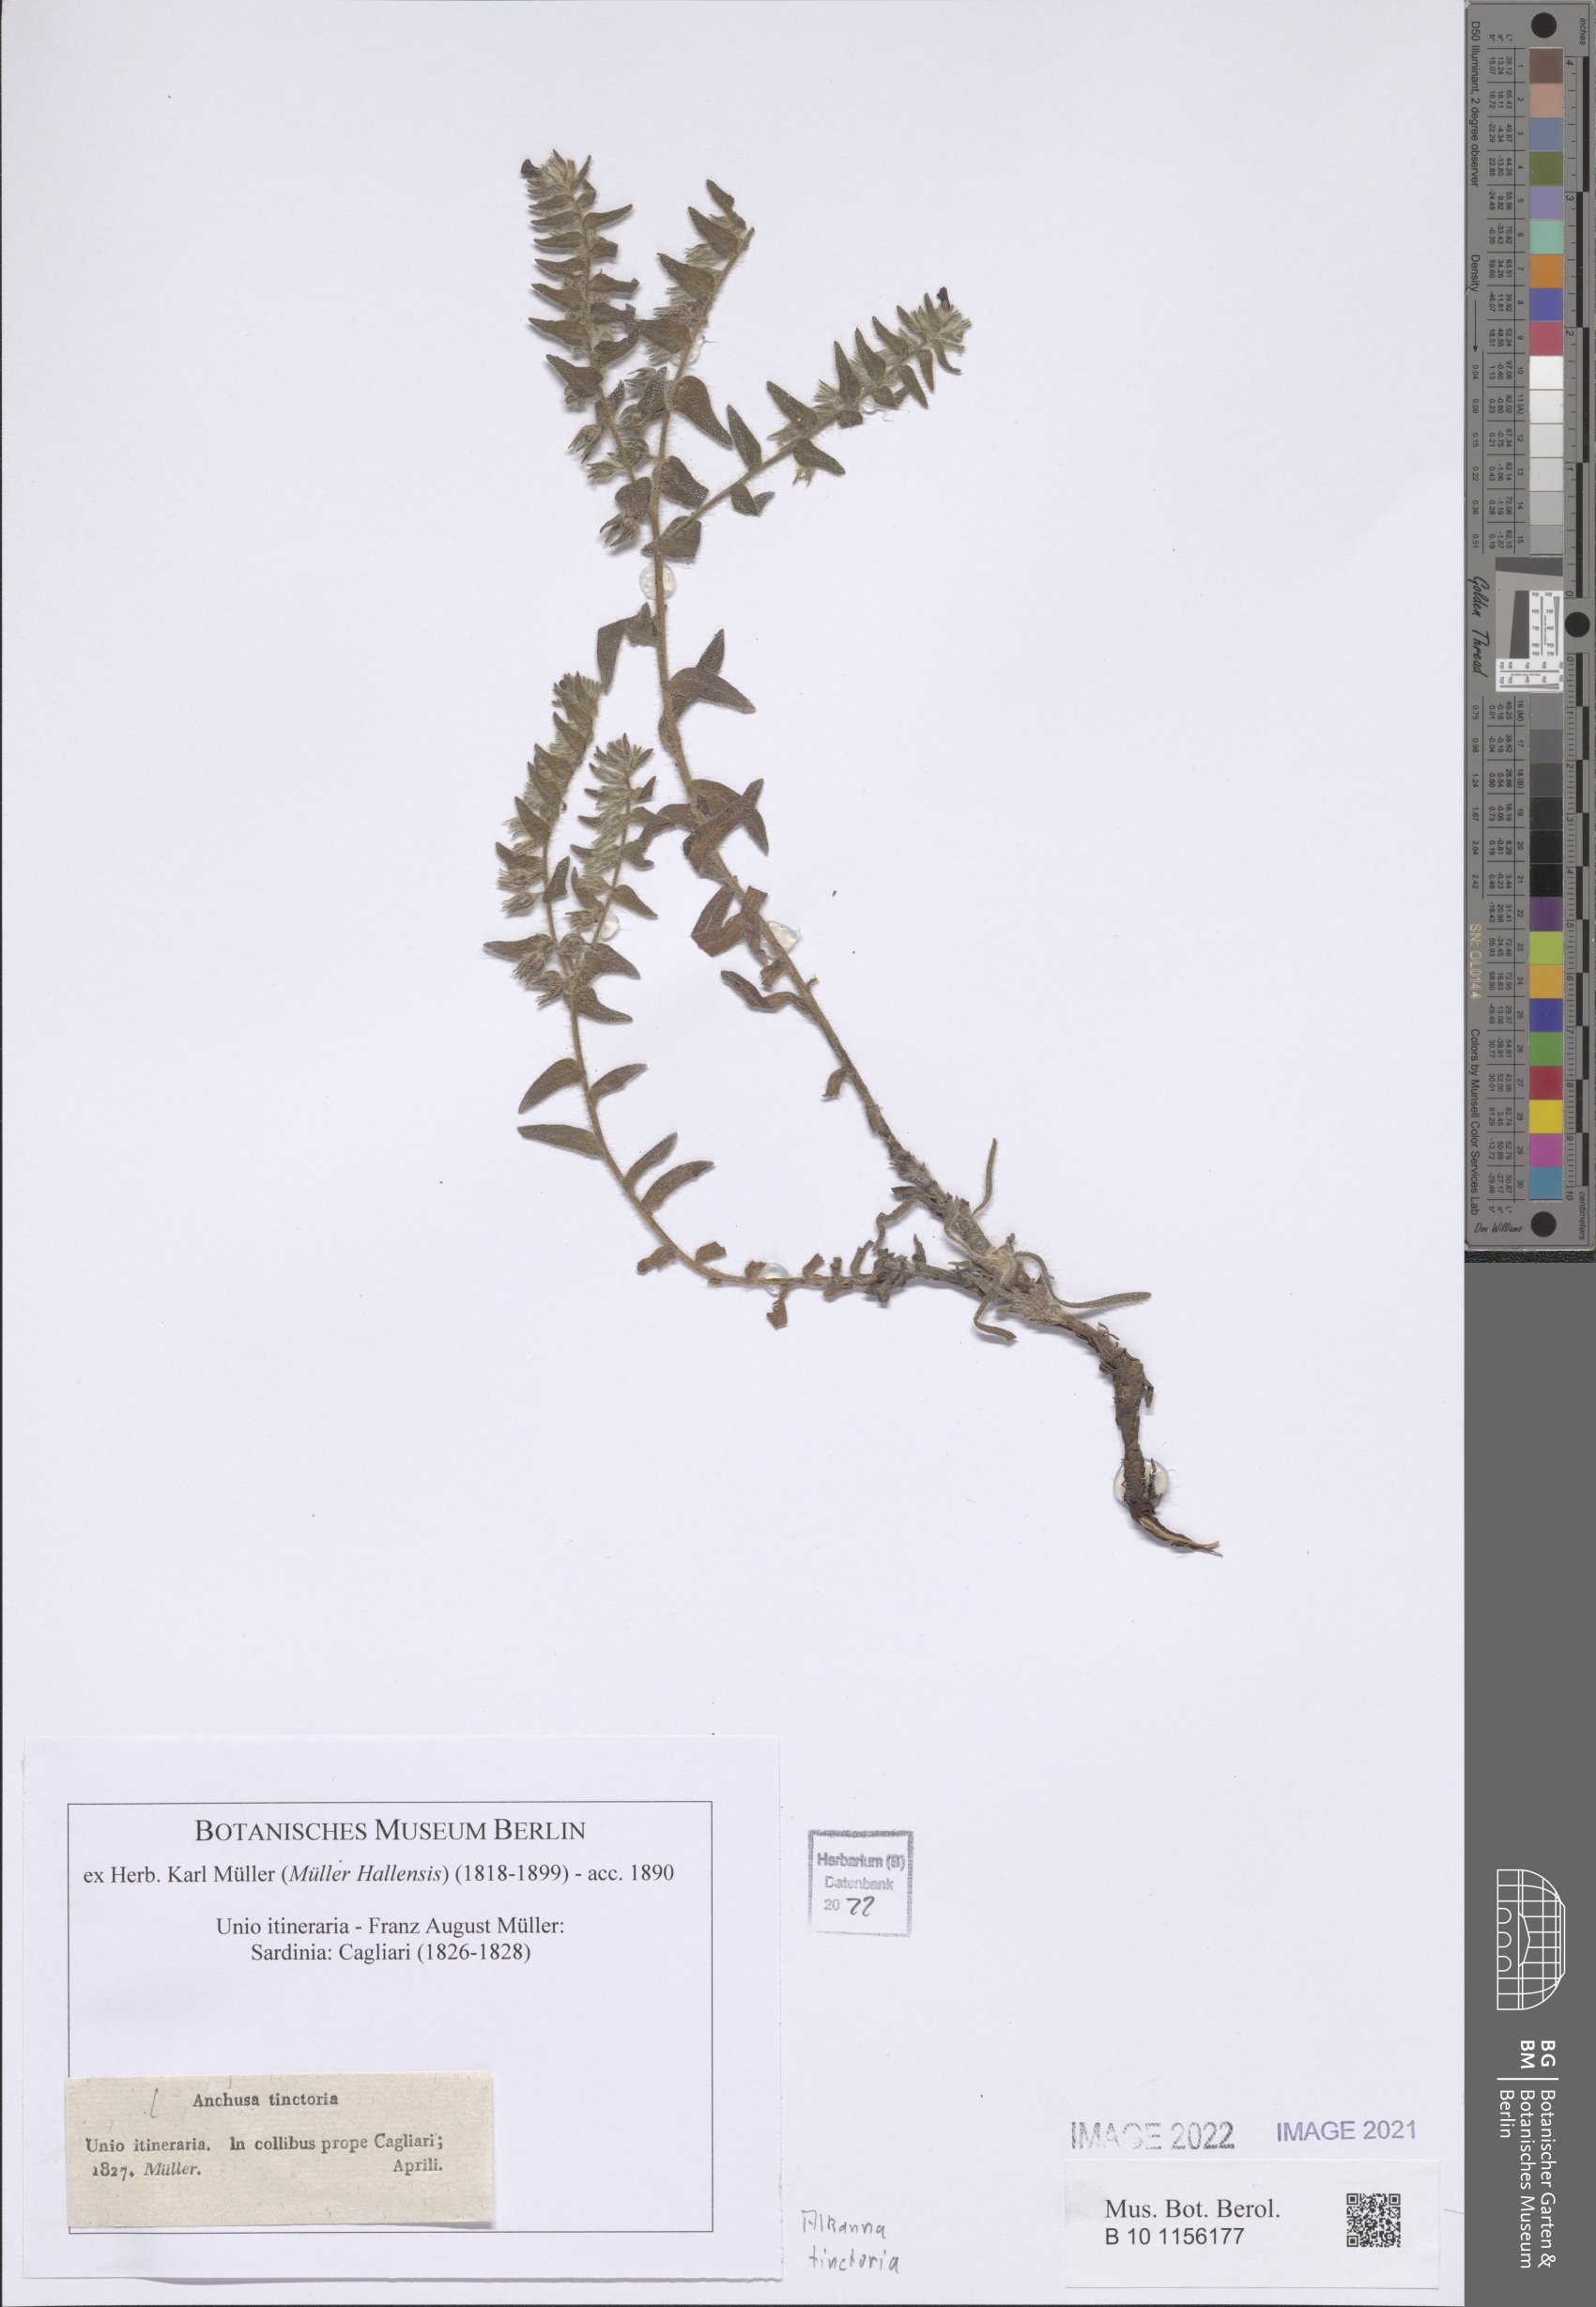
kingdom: Plantae
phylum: Tracheophyta
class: Magnoliopsida
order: Boraginales
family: Boraginaceae
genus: Alkanna
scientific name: Alkanna tinctoria
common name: Dyer's-alkanet
